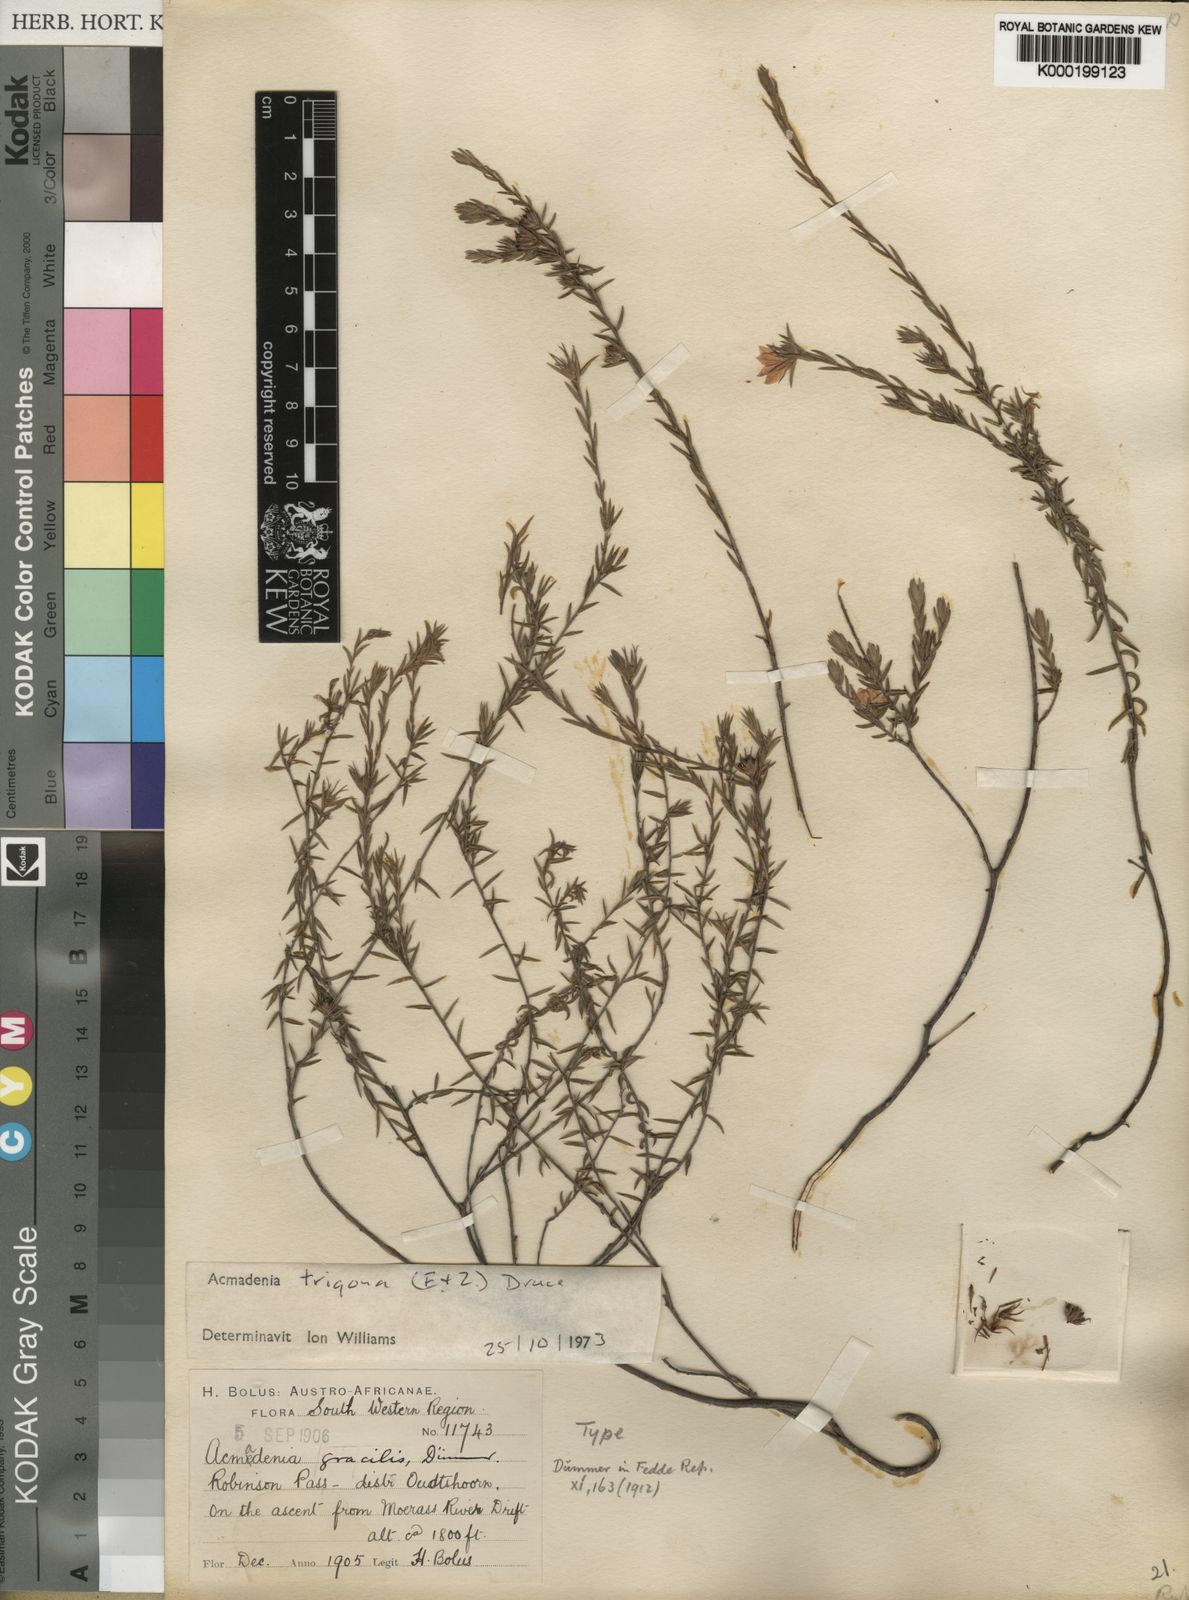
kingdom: Plantae
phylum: Tracheophyta
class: Magnoliopsida
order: Sapindales
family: Rutaceae
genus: Acmadenia
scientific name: Acmadenia trigona
